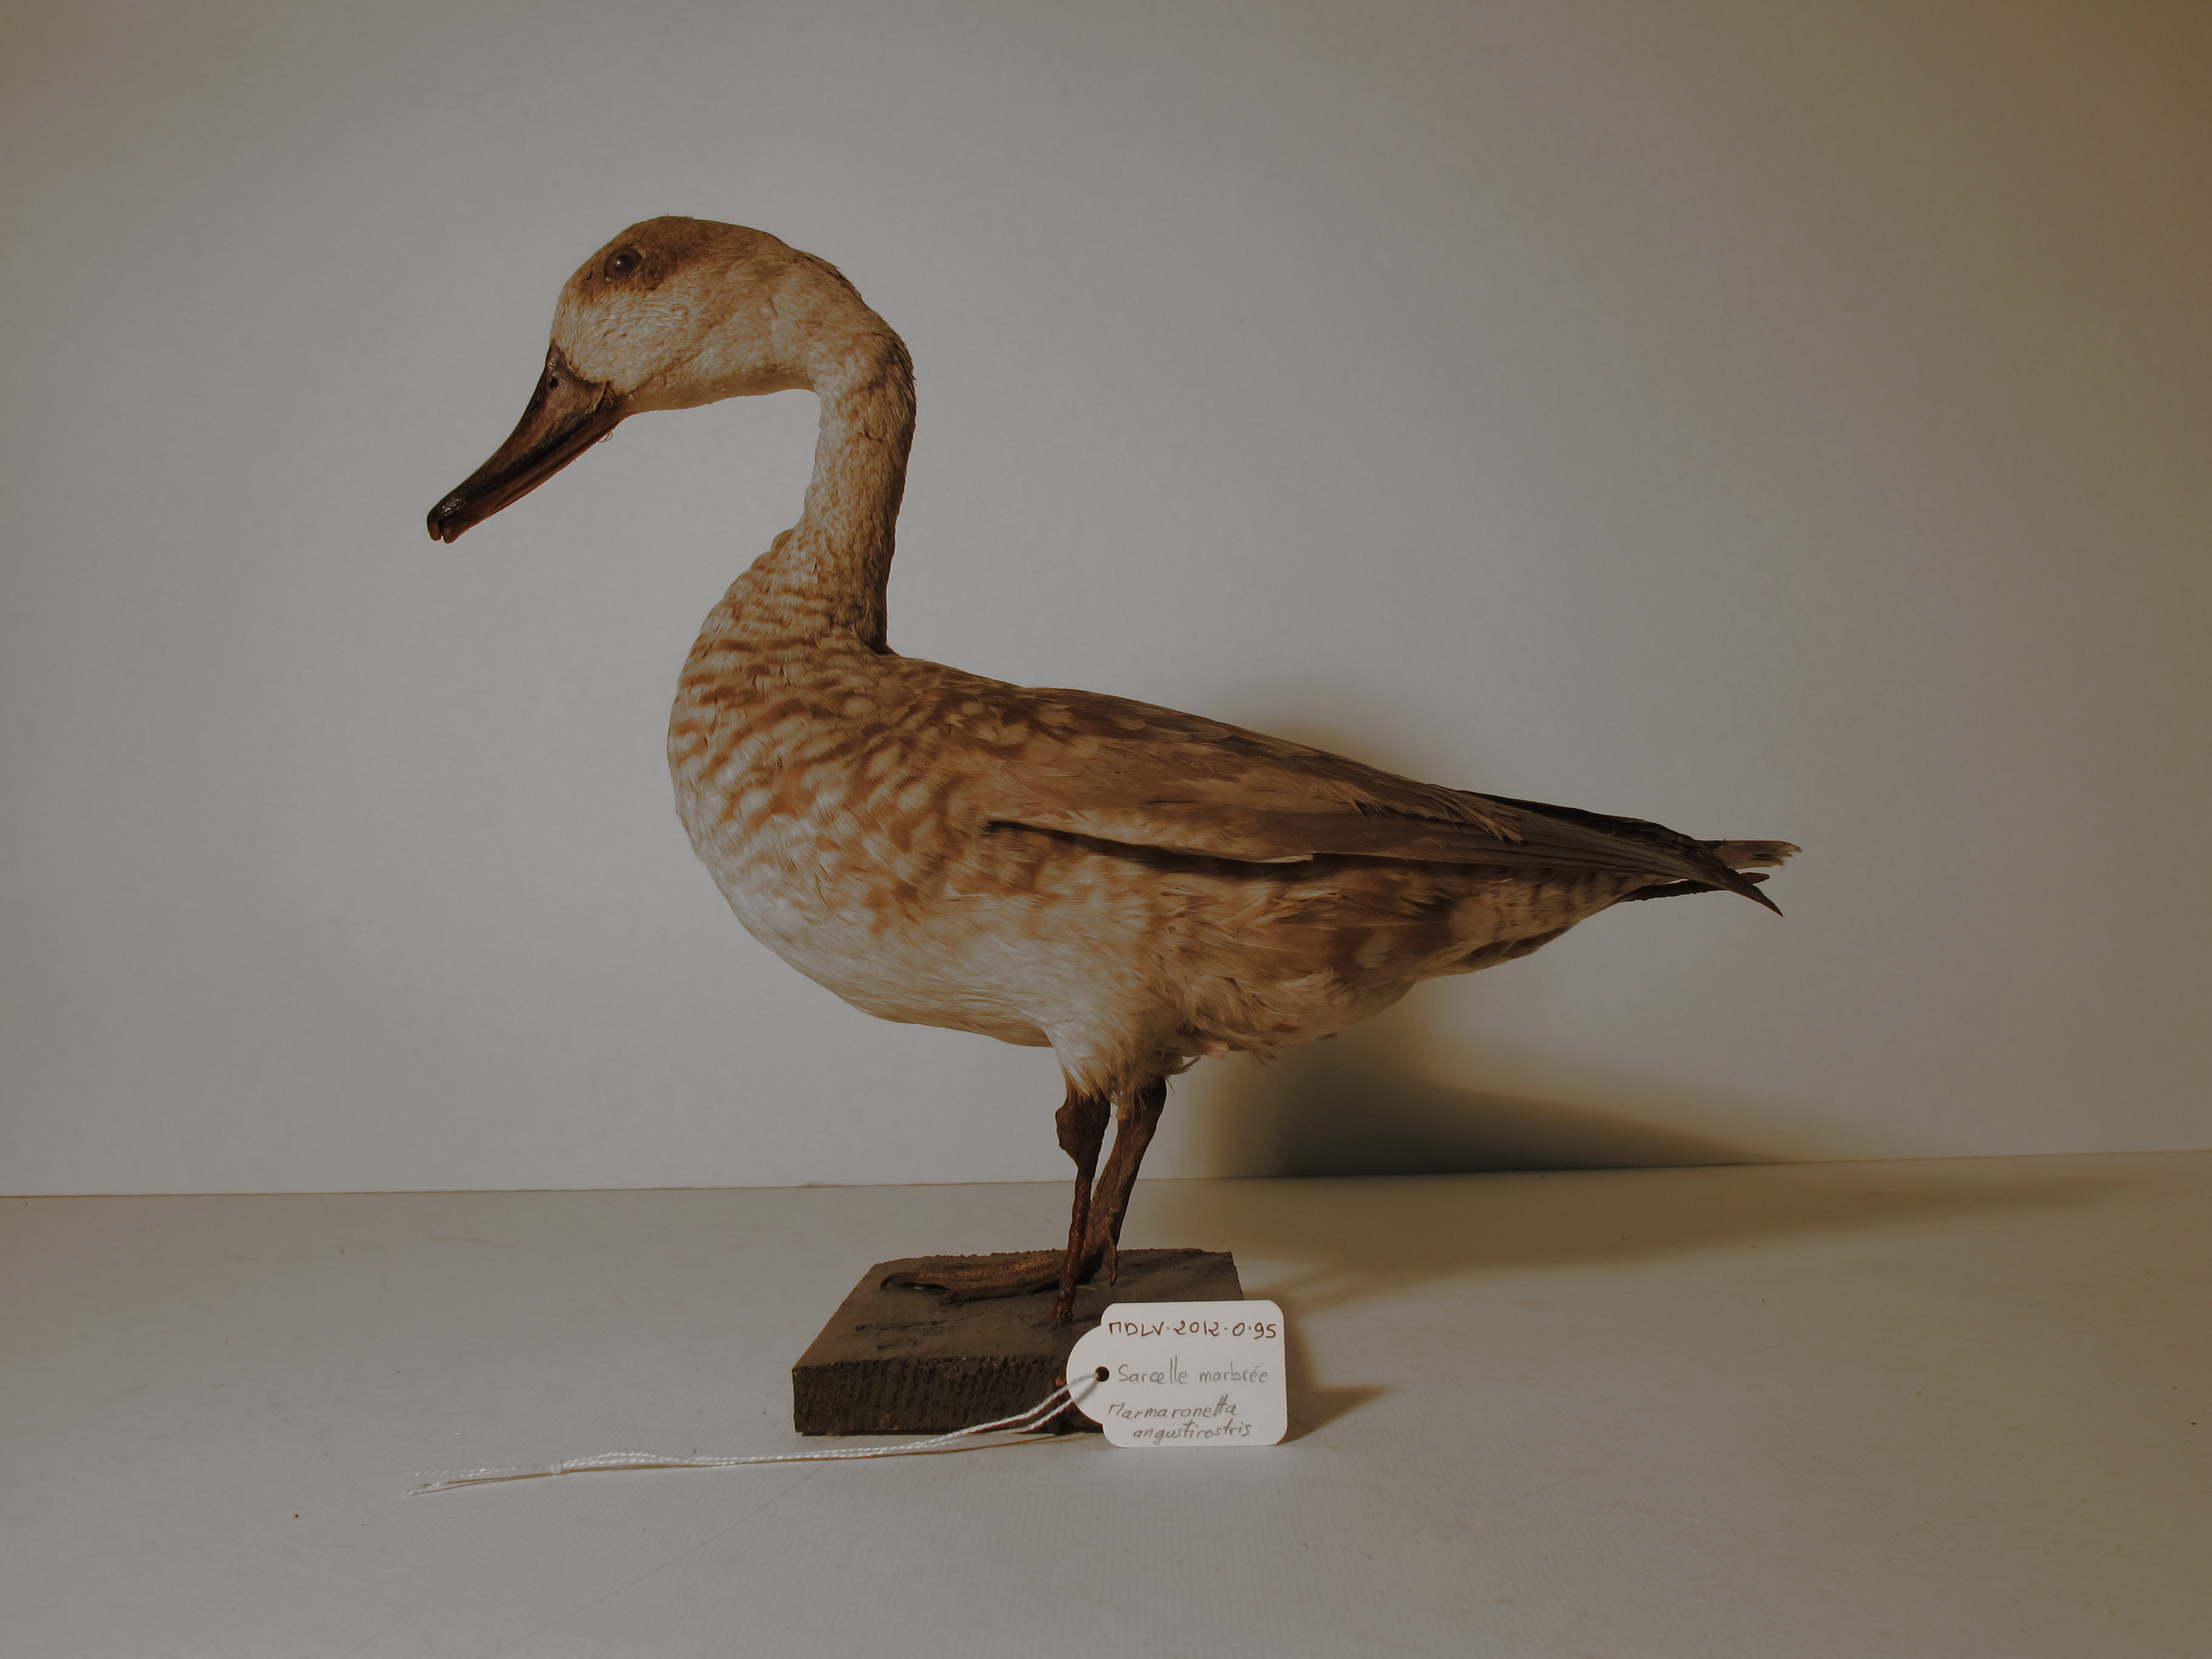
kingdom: Animalia
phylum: Chordata
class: Aves
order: Anseriformes
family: Anatidae
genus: Marmaronetta
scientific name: Marmaronetta angustirostris
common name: Marbled Teal
